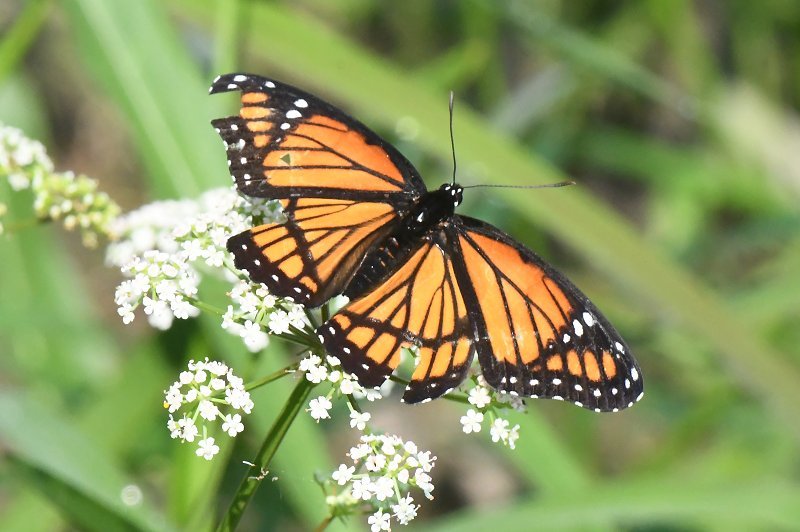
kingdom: Animalia
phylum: Arthropoda
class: Insecta
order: Lepidoptera
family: Nymphalidae
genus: Limenitis
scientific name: Limenitis archippus
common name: Viceroy
